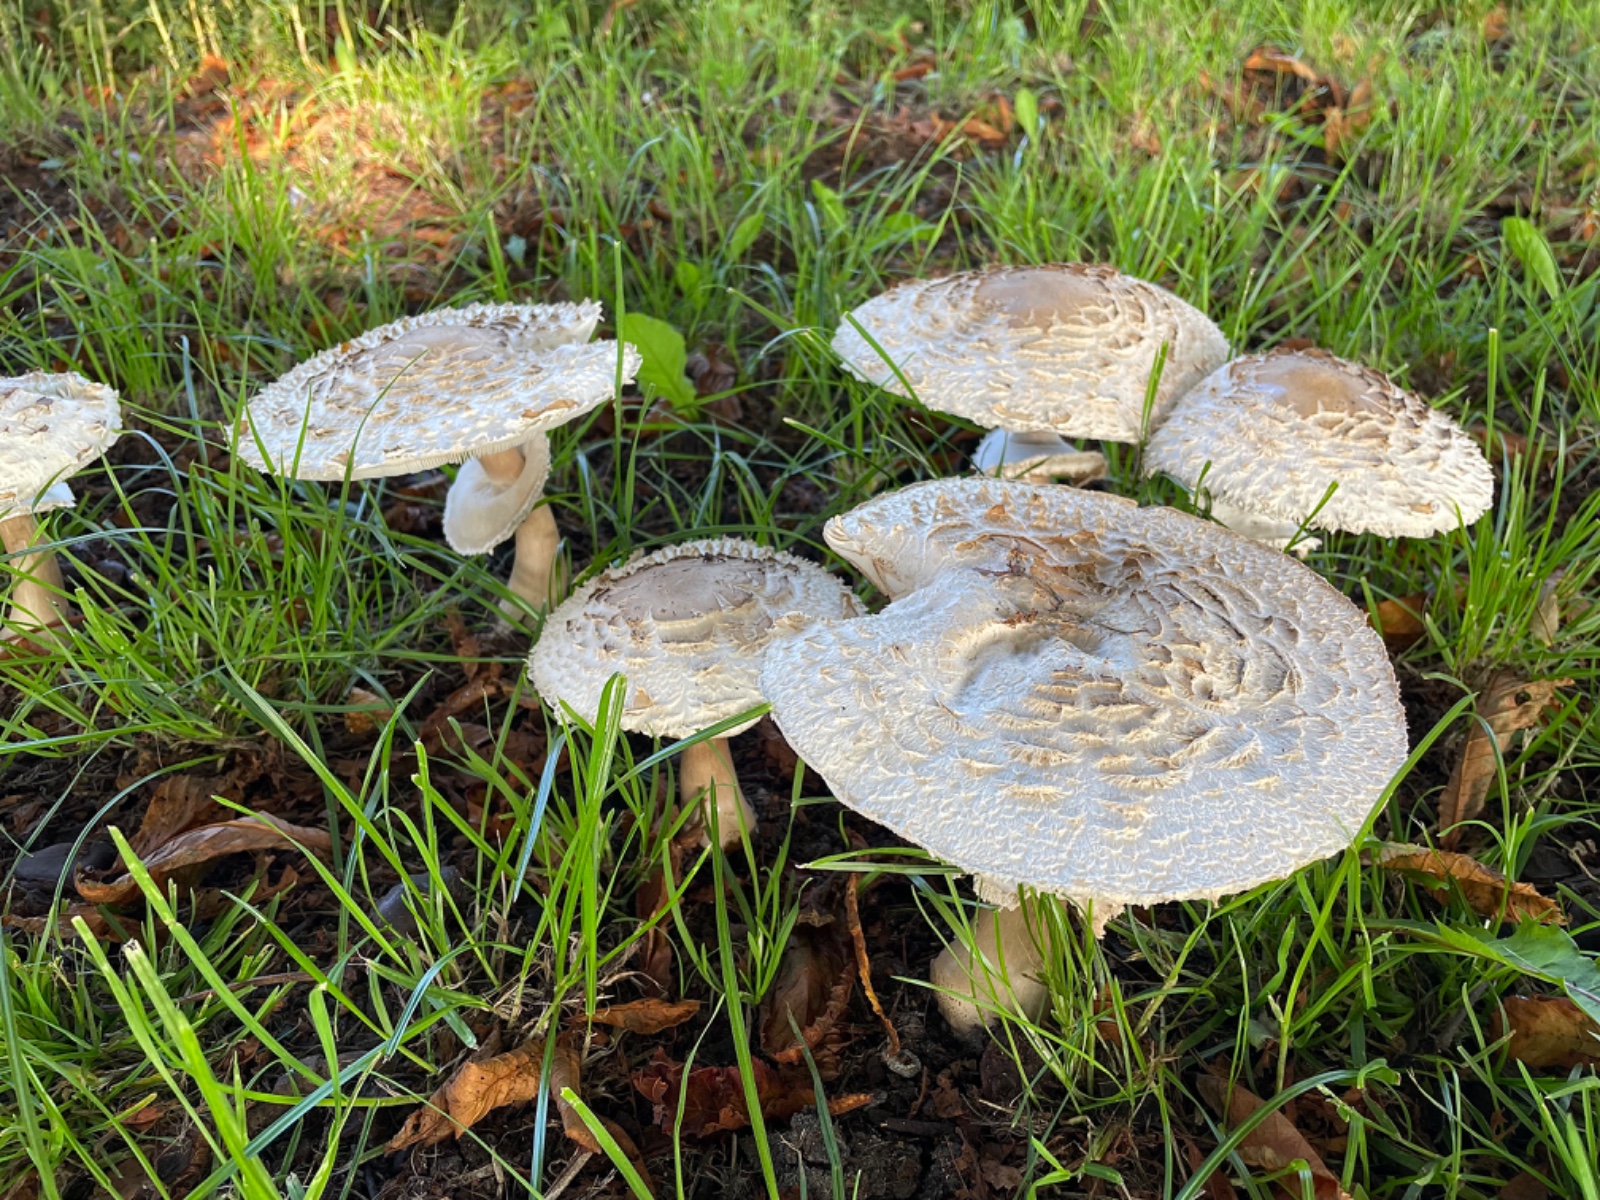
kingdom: Fungi
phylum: Basidiomycota
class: Agaricomycetes
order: Agaricales
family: Agaricaceae
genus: Chlorophyllum
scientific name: Chlorophyllum rhacodes
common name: ægte rabarberhat
